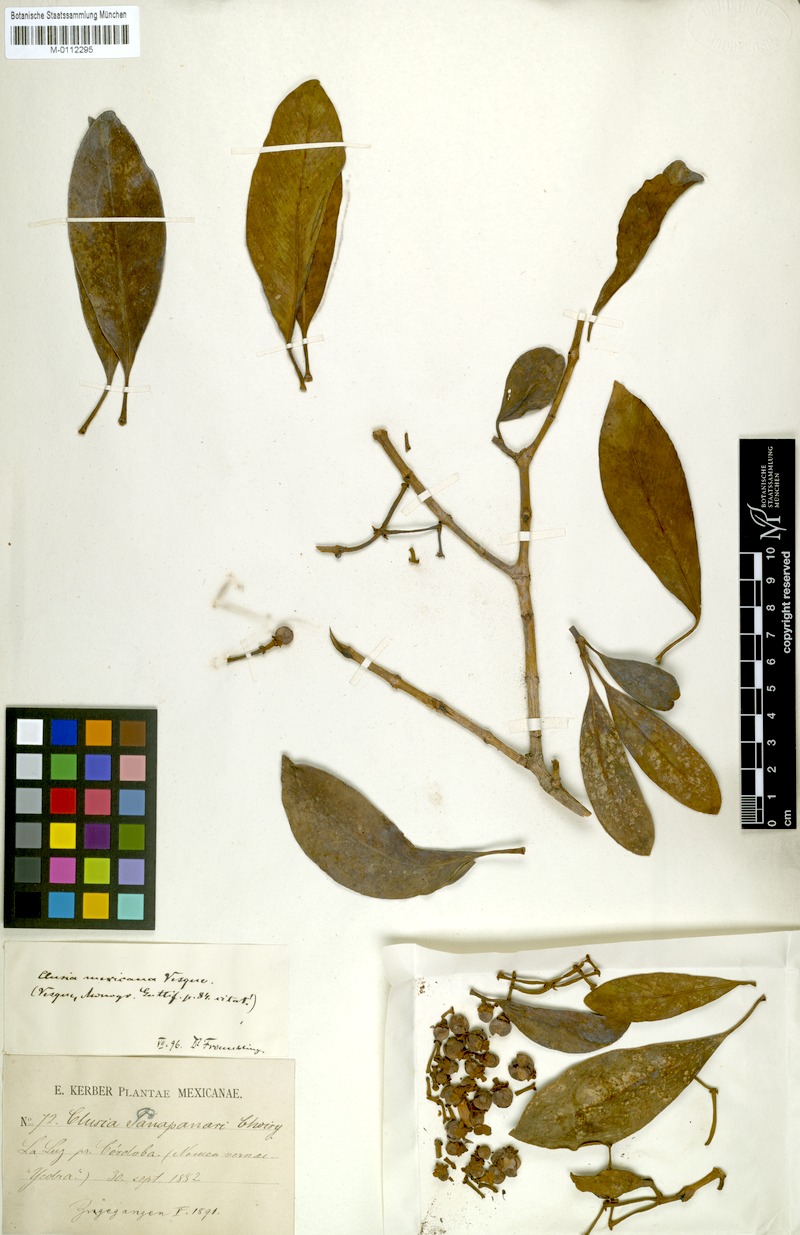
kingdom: Plantae
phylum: Tracheophyta
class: Magnoliopsida
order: Malpighiales
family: Clusiaceae
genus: Clusia
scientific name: Clusia guatemalensis
